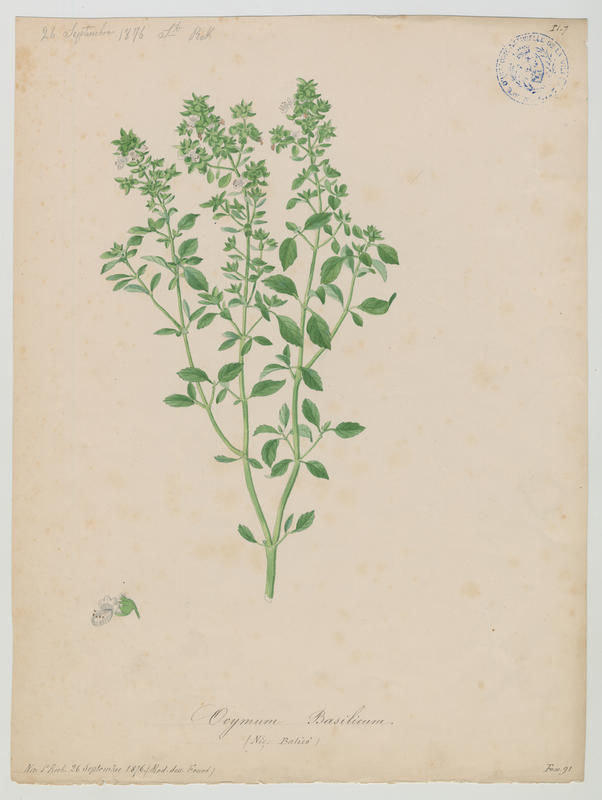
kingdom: Plantae
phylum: Tracheophyta
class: Magnoliopsida
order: Lamiales
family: Lamiaceae
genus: Ocimum
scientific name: Ocimum basilicum
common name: Sweet basil
